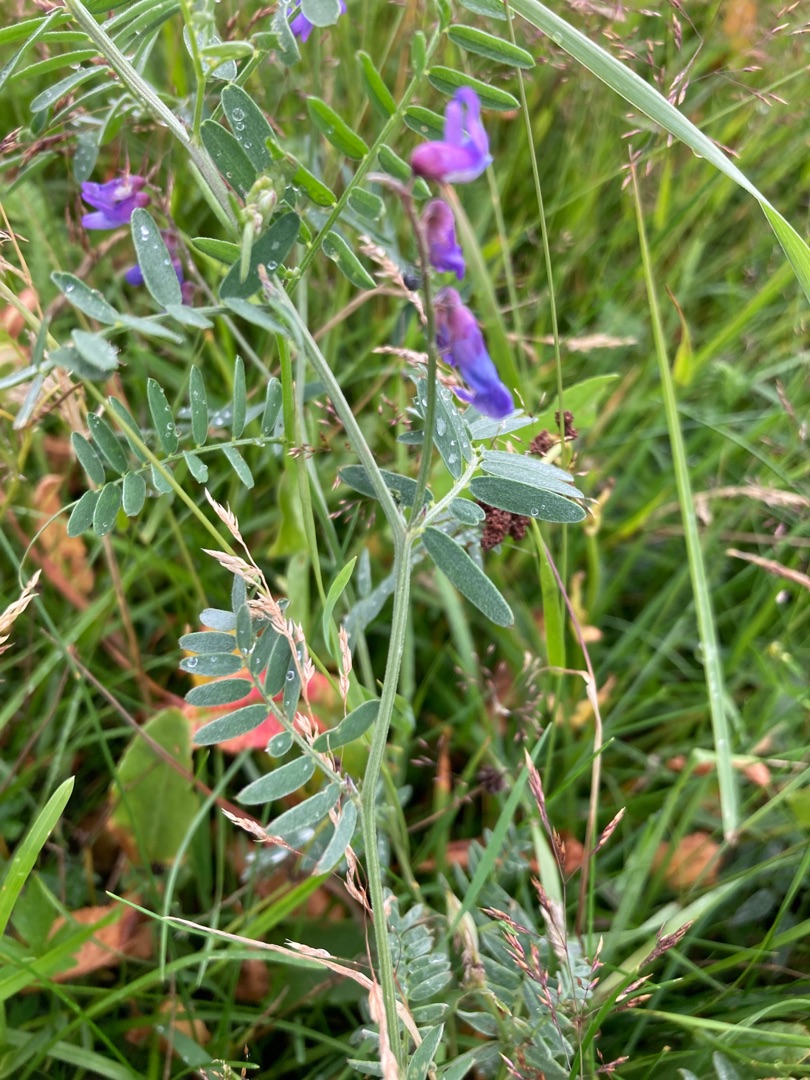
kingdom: Plantae
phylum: Tracheophyta
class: Magnoliopsida
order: Fabales
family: Fabaceae
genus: Vicia
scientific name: Vicia cracca
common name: Muse-vikke
